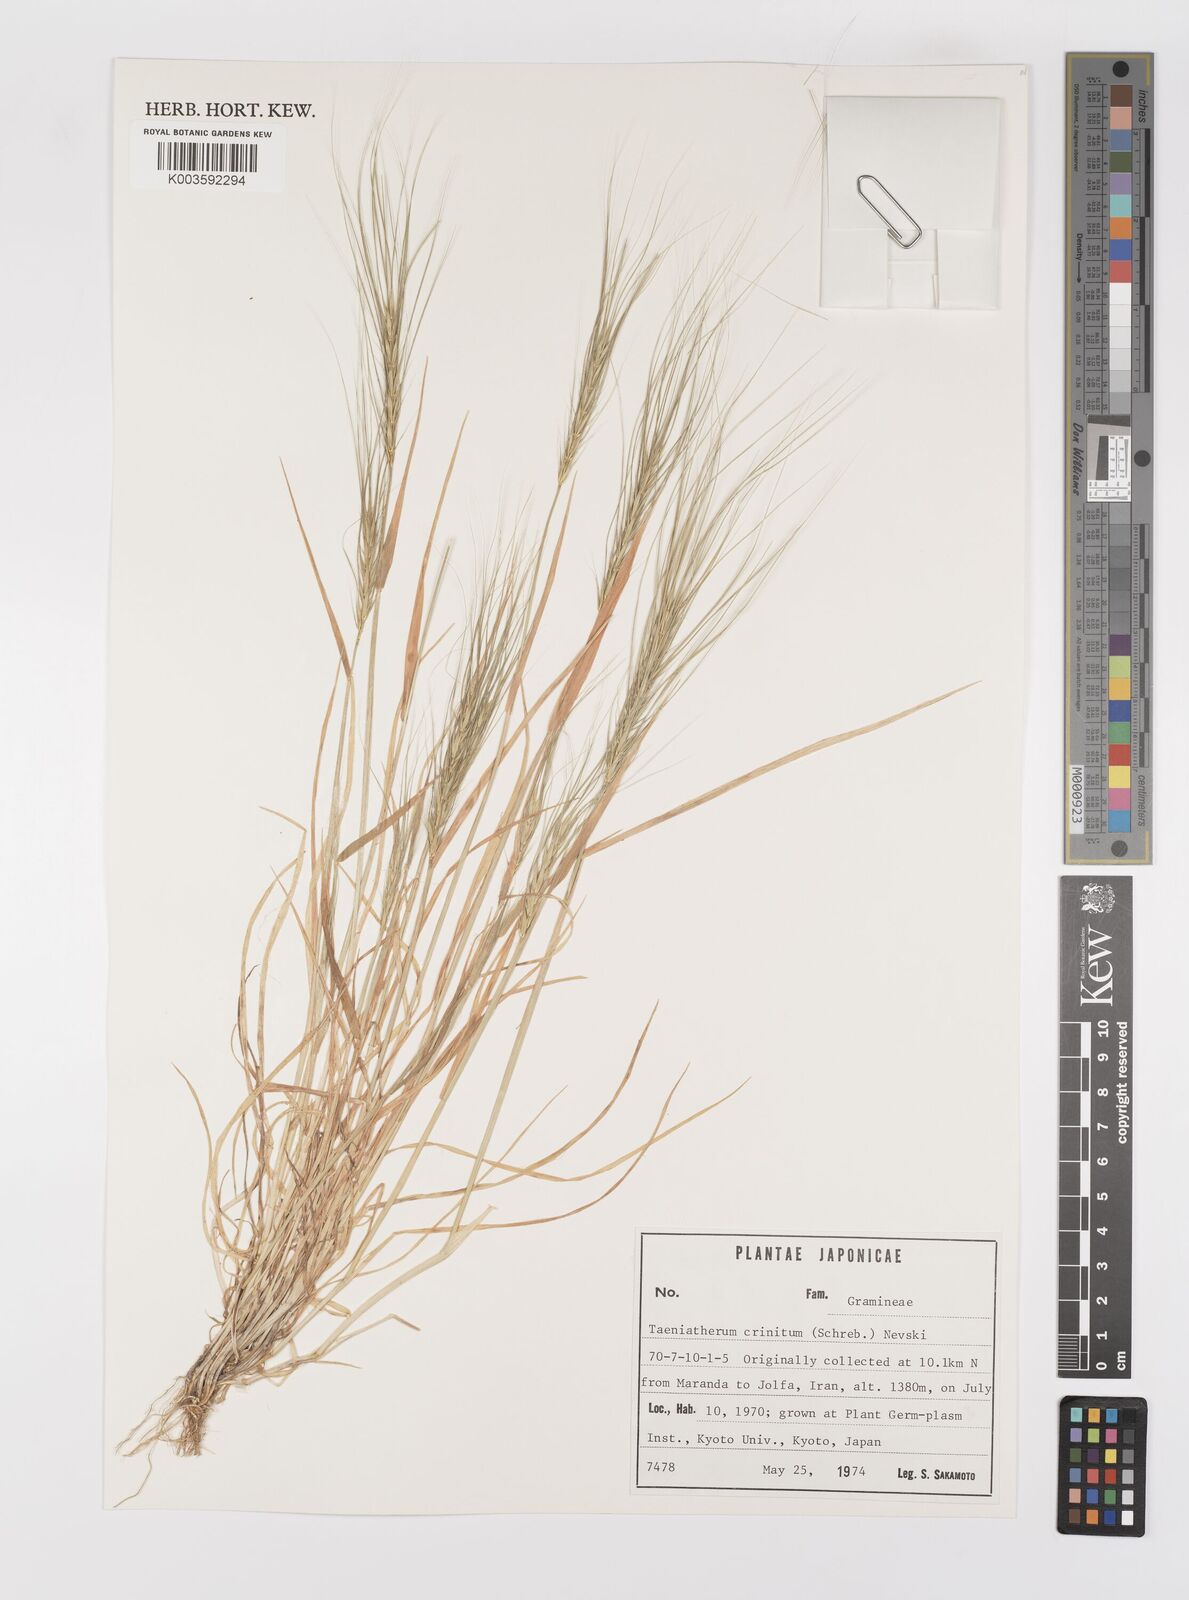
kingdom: Plantae
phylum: Tracheophyta
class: Liliopsida
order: Poales
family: Poaceae
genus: Taeniatherum
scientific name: Taeniatherum caput-medusae
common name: Medusahead
